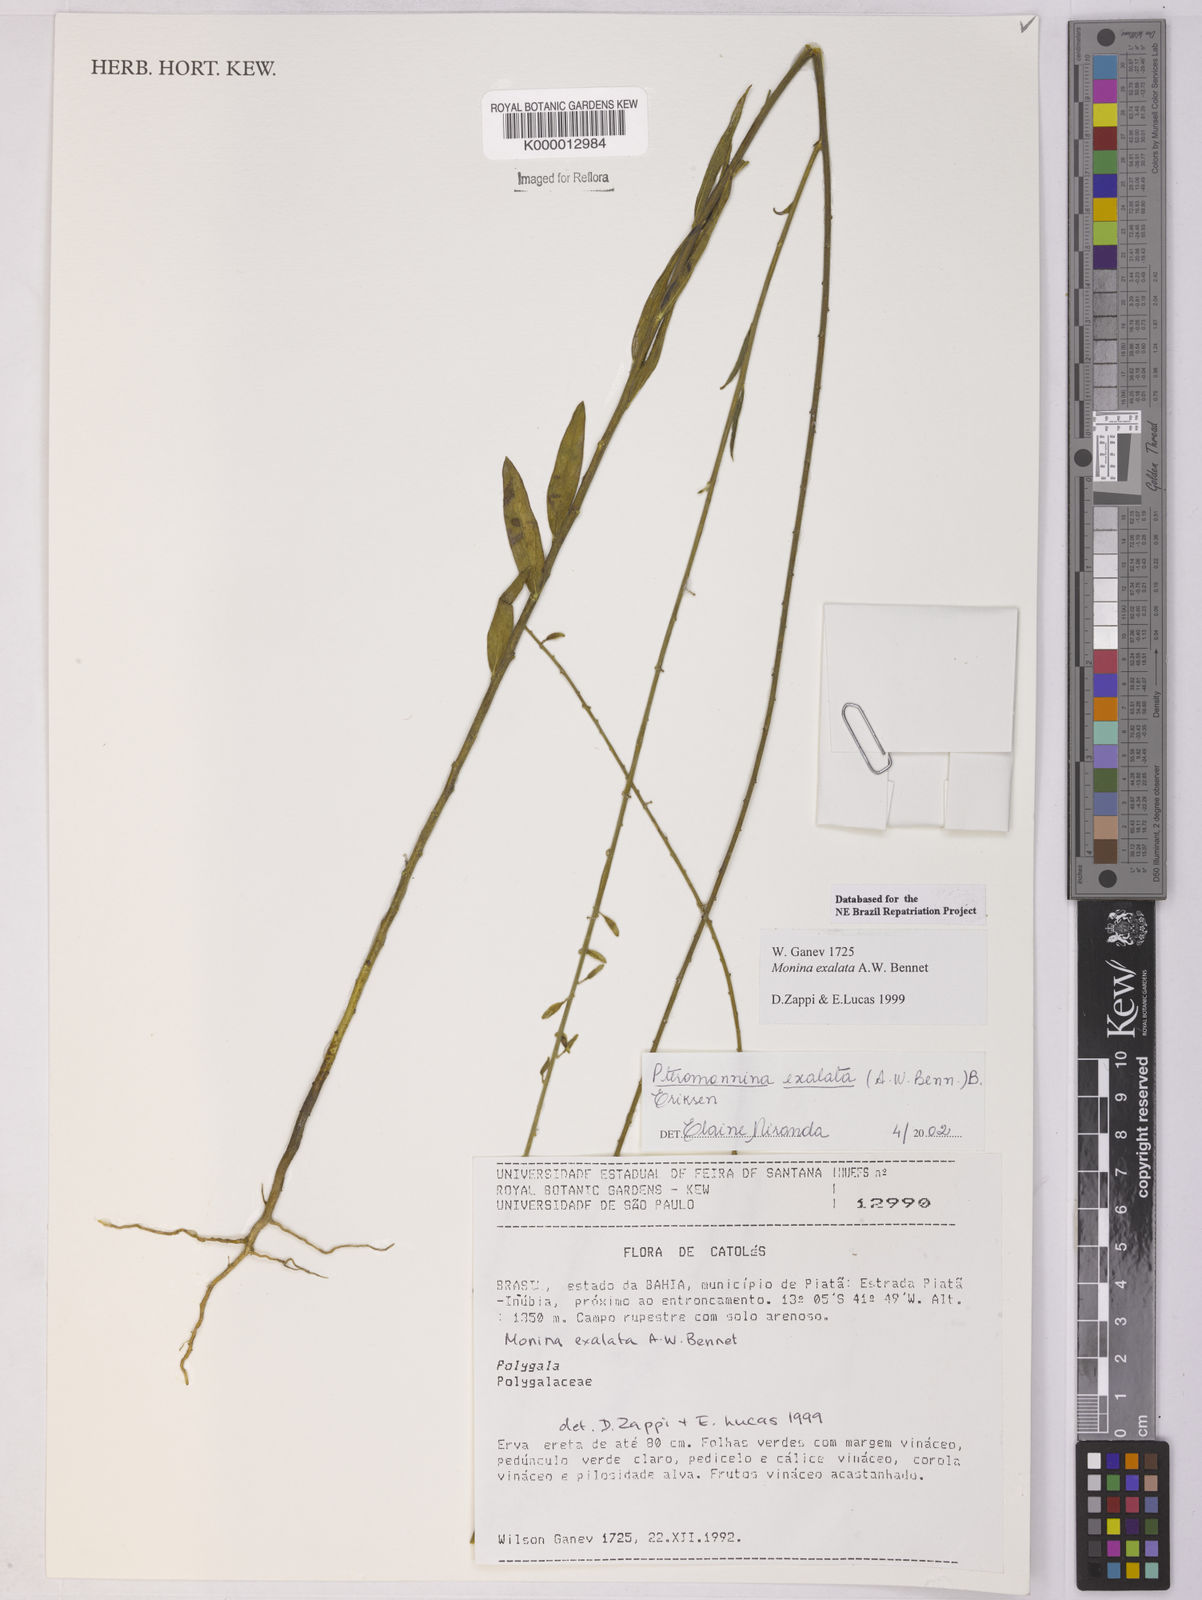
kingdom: Plantae
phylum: Tracheophyta
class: Magnoliopsida
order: Fabales
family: Polygalaceae
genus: Monnina
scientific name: Monnina exalata
